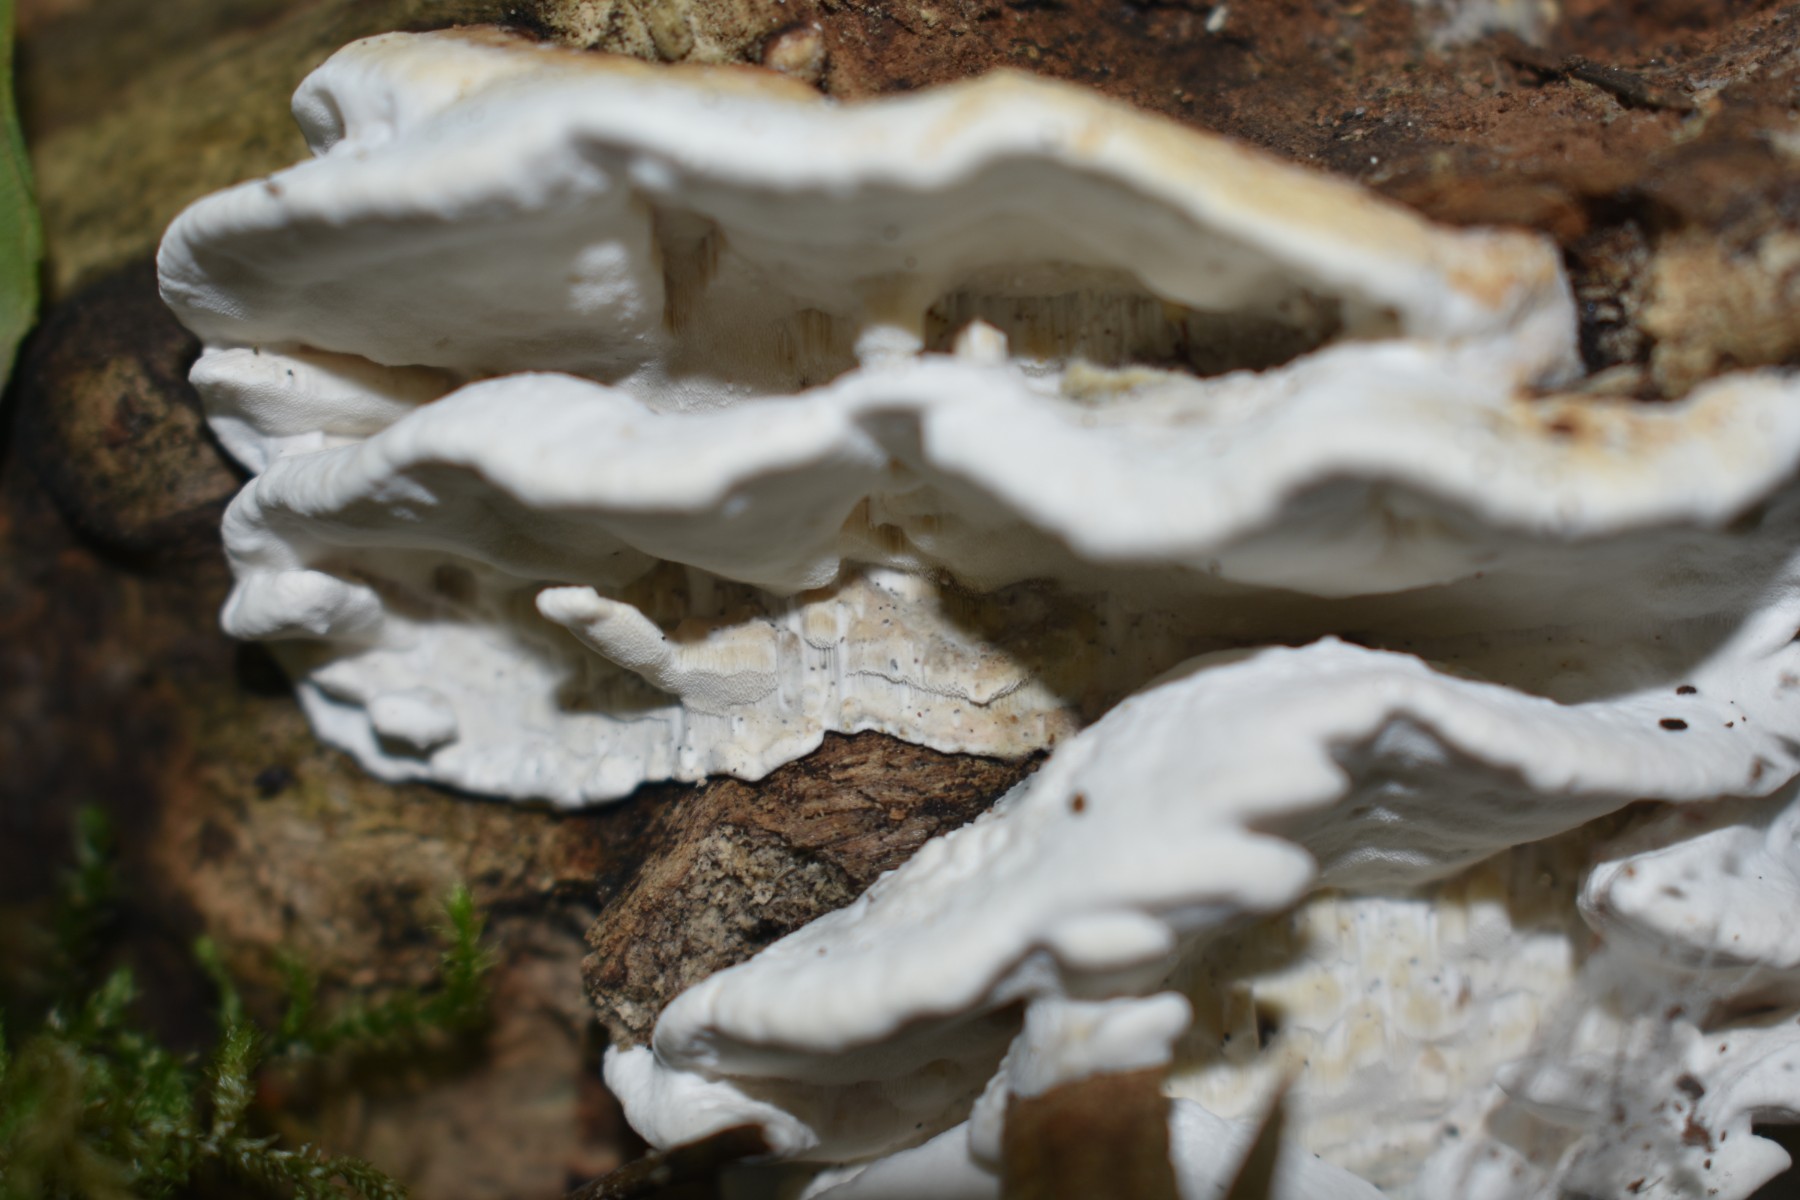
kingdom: Fungi
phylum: Basidiomycota
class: Agaricomycetes
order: Polyporales
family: Incrustoporiaceae
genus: Skeletocutis
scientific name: Skeletocutis nemoralis
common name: stor krystalporesvamp
